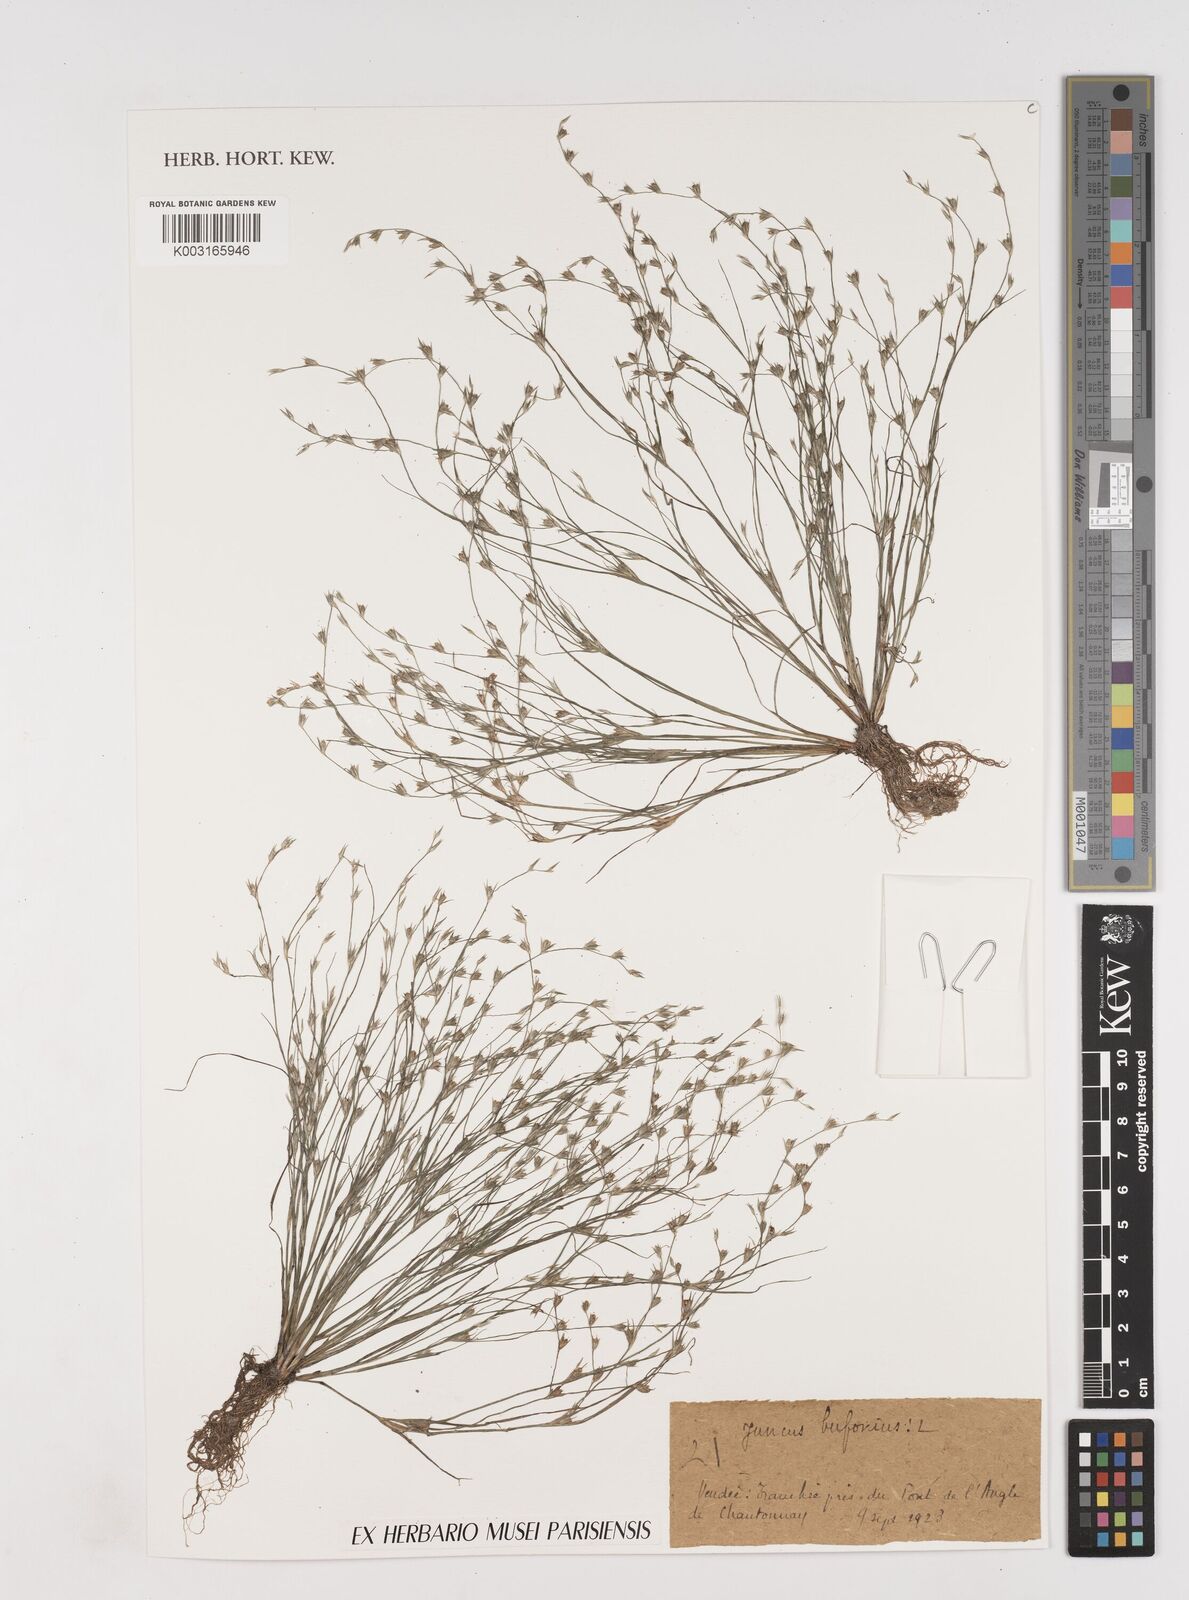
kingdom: Plantae
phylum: Tracheophyta
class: Liliopsida
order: Poales
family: Juncaceae
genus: Juncus
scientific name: Juncus bufonius
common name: Toad rush
